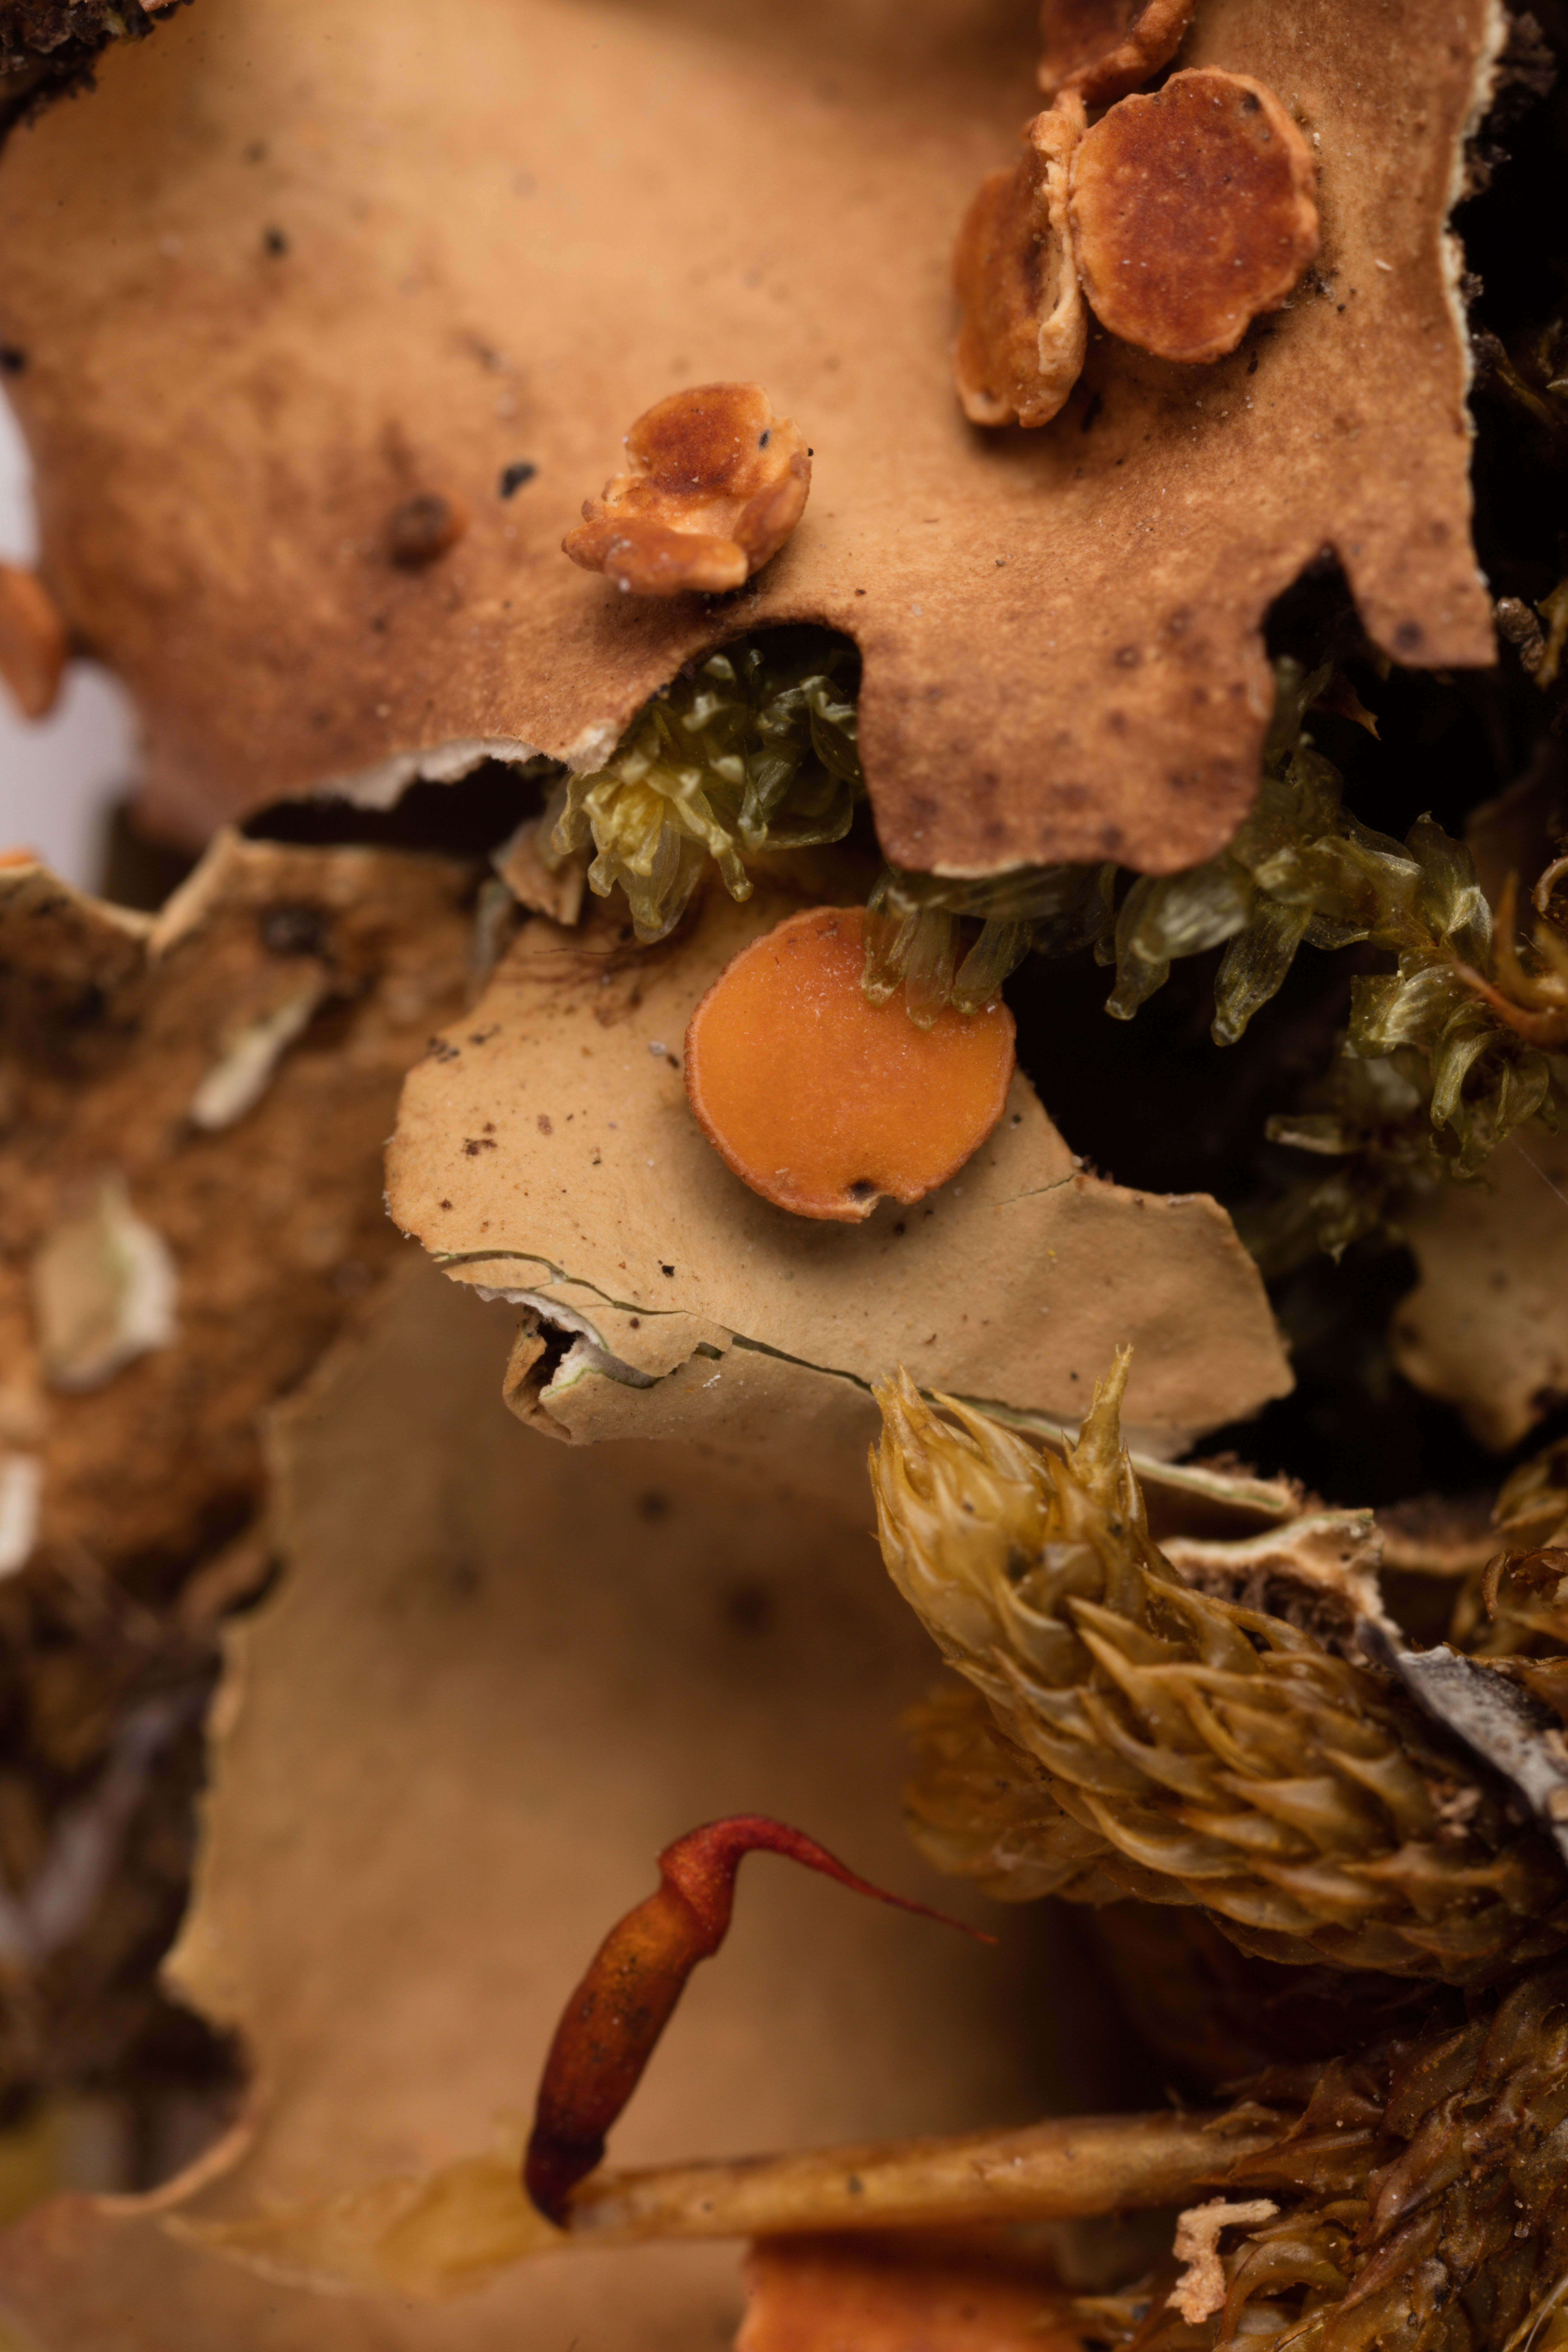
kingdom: Fungi
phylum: Ascomycota
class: Lecanoromycetes
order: Peltigerales
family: Lobariaceae
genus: Sticta
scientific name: Sticta subcaperata
